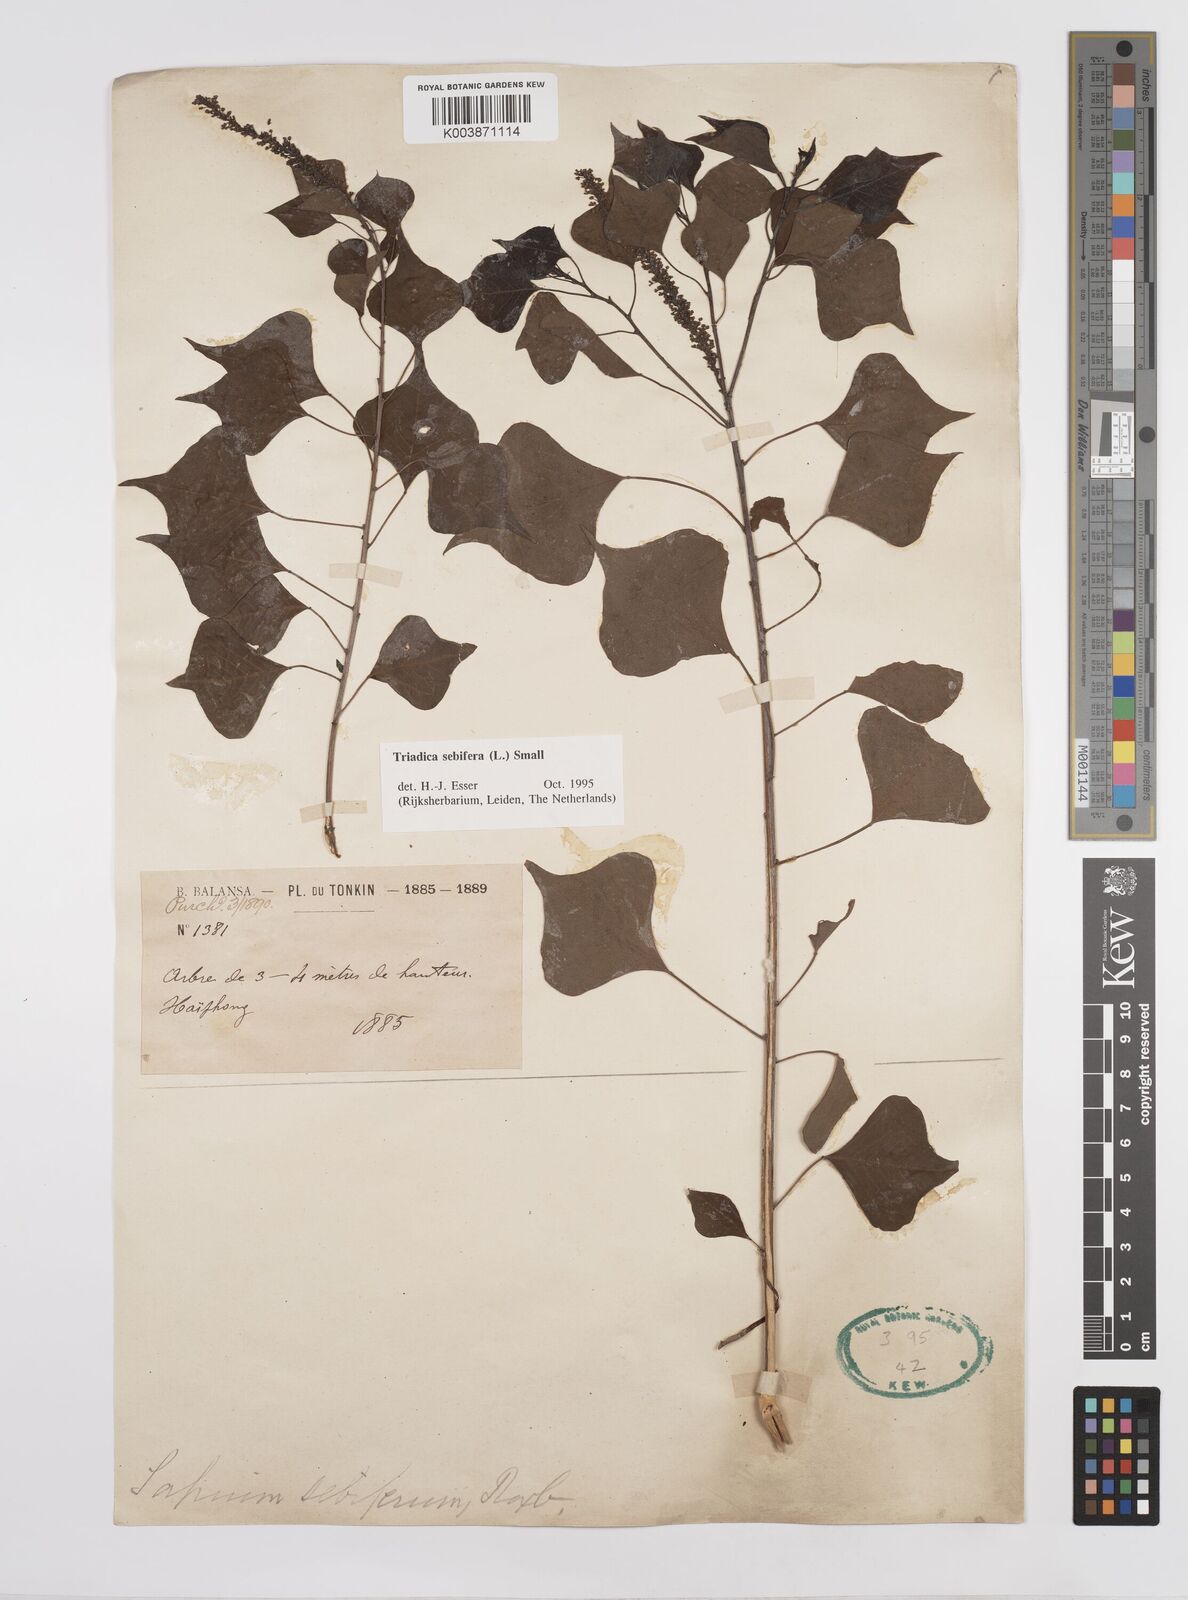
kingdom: Plantae
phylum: Tracheophyta
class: Magnoliopsida
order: Malpighiales
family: Euphorbiaceae
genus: Triadica
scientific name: Triadica sebifera
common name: Chinese tallow
